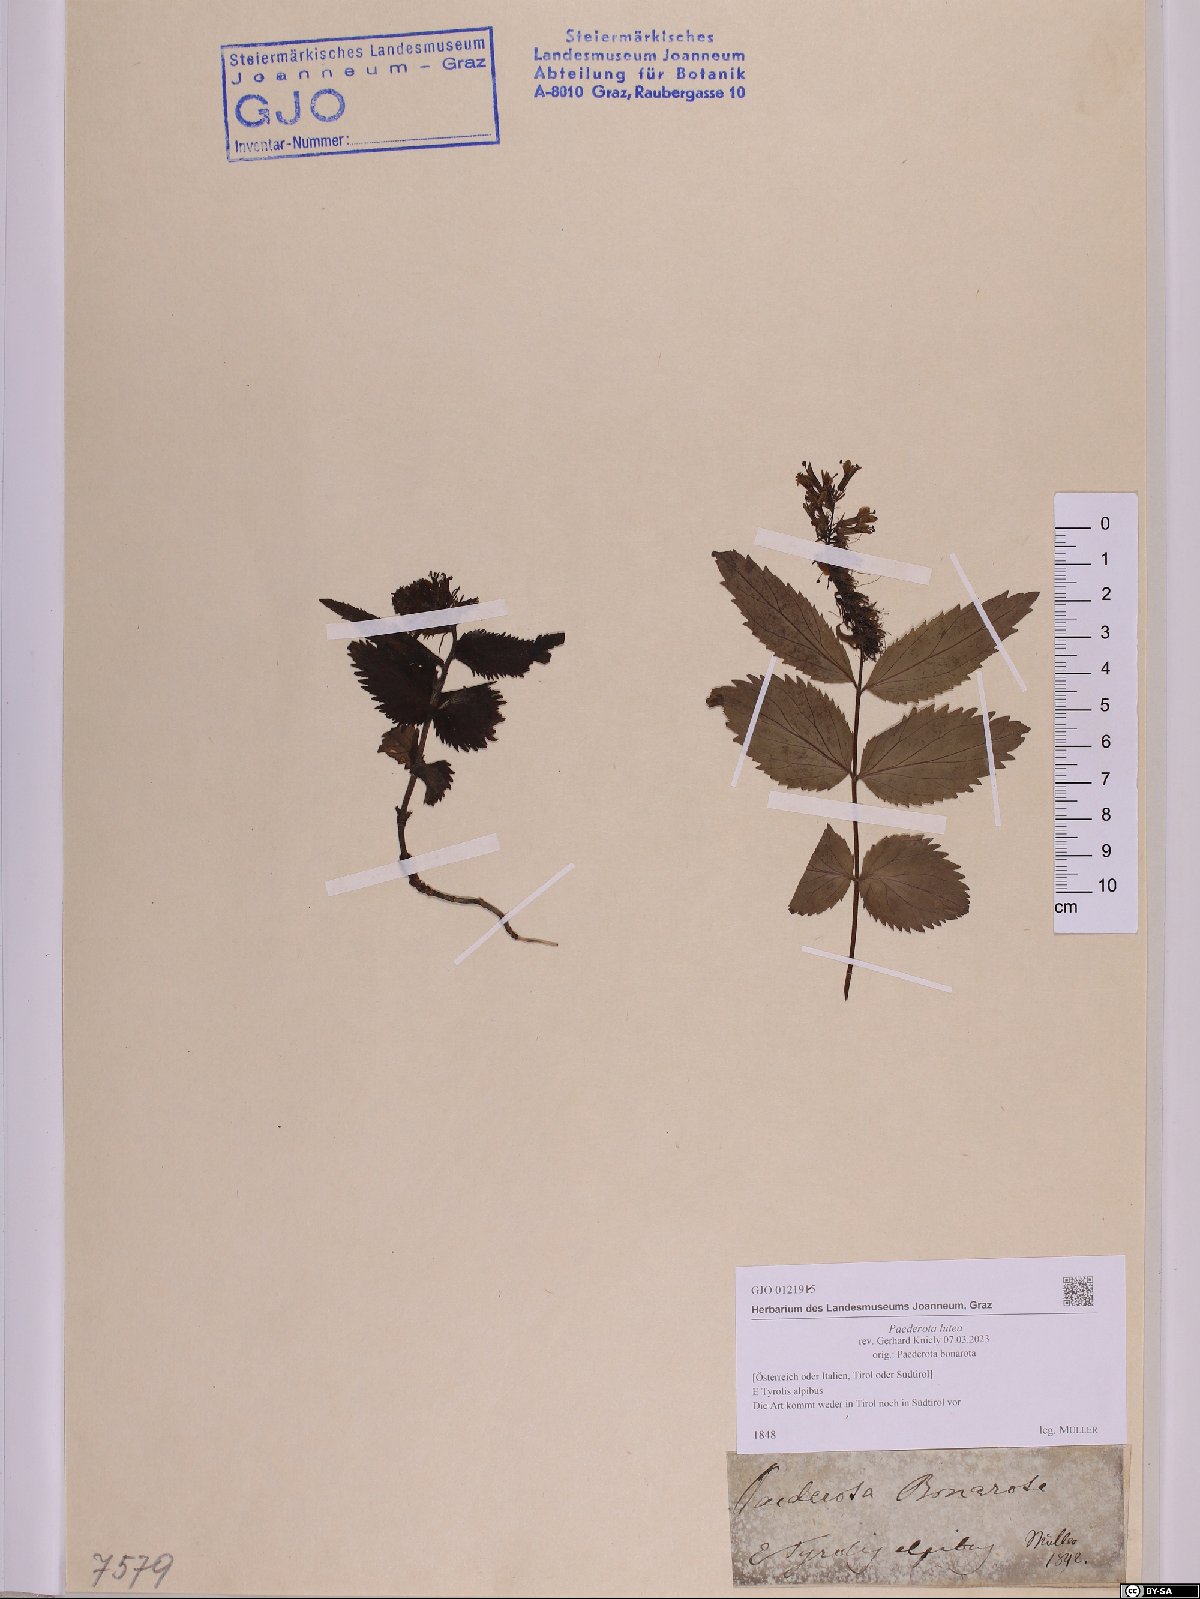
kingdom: Plantae
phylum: Tracheophyta
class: Magnoliopsida
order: Lamiales
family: Plantaginaceae
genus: Paederota
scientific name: Paederota lutea
